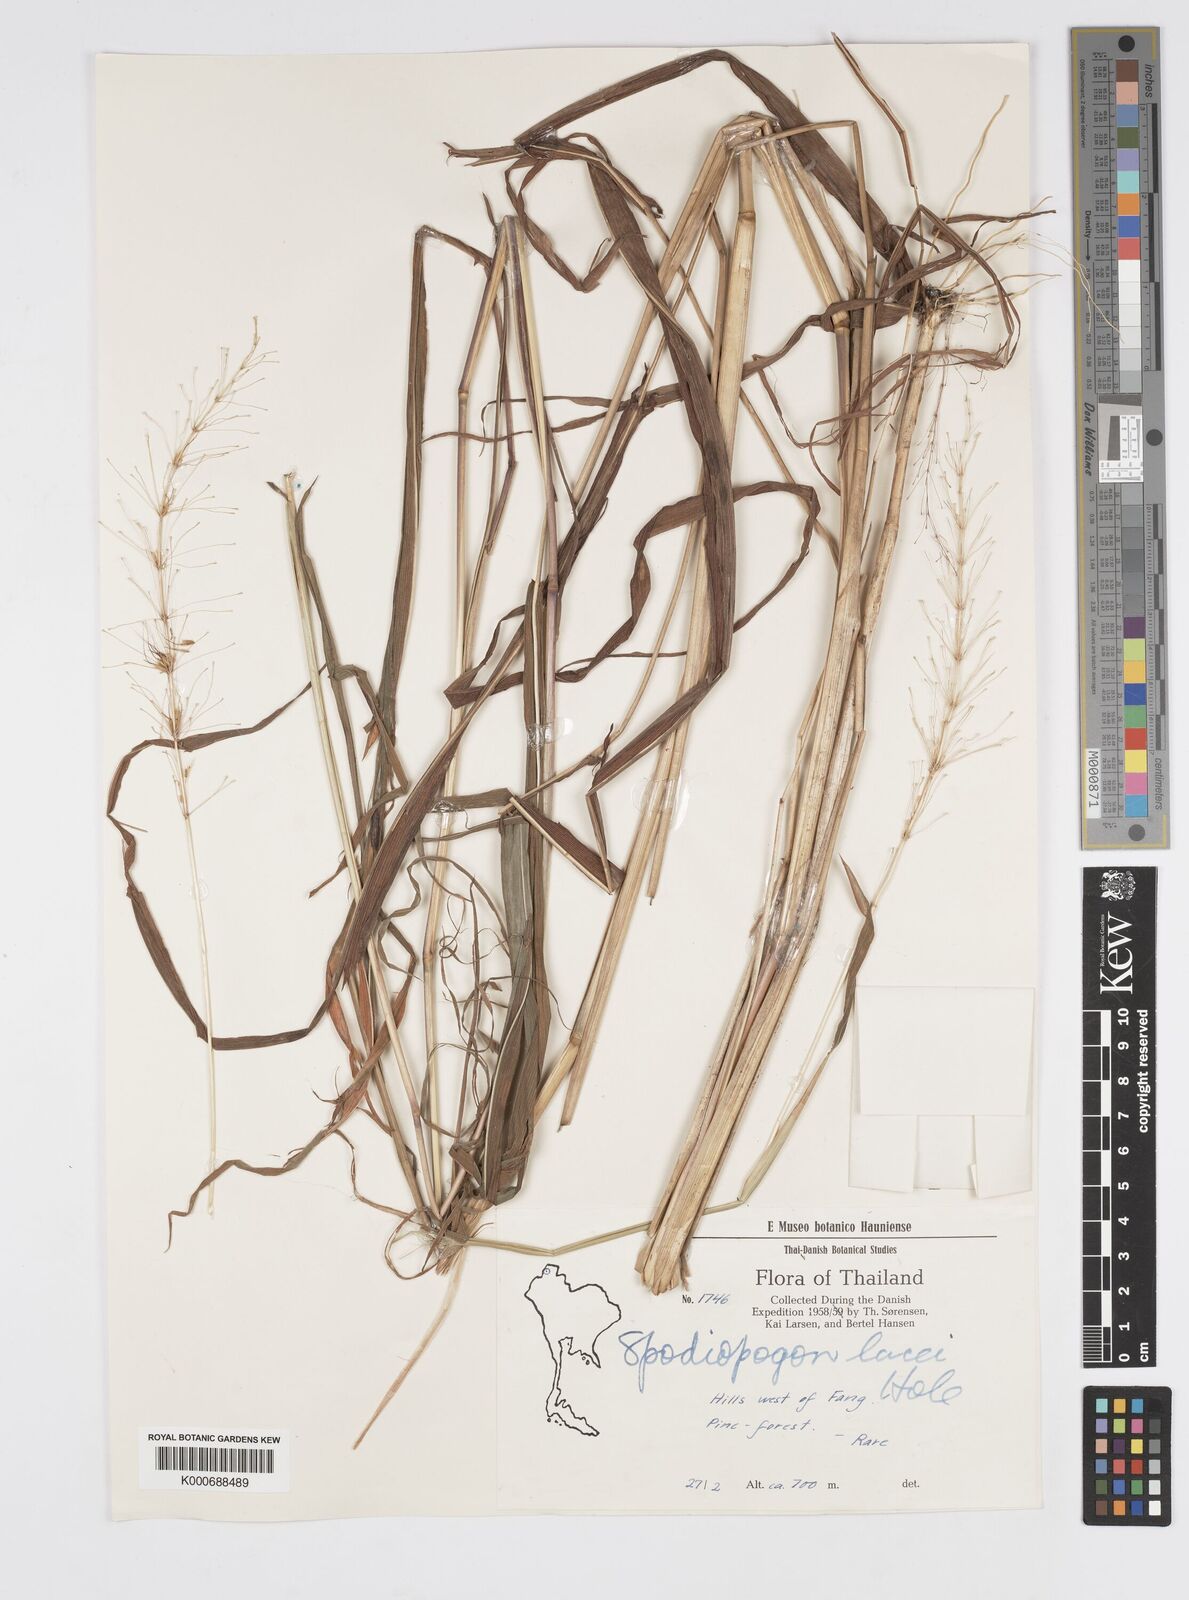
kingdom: Plantae
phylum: Tracheophyta
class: Liliopsida
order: Poales
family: Poaceae
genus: Spodiopogon
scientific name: Spodiopogon lacei
